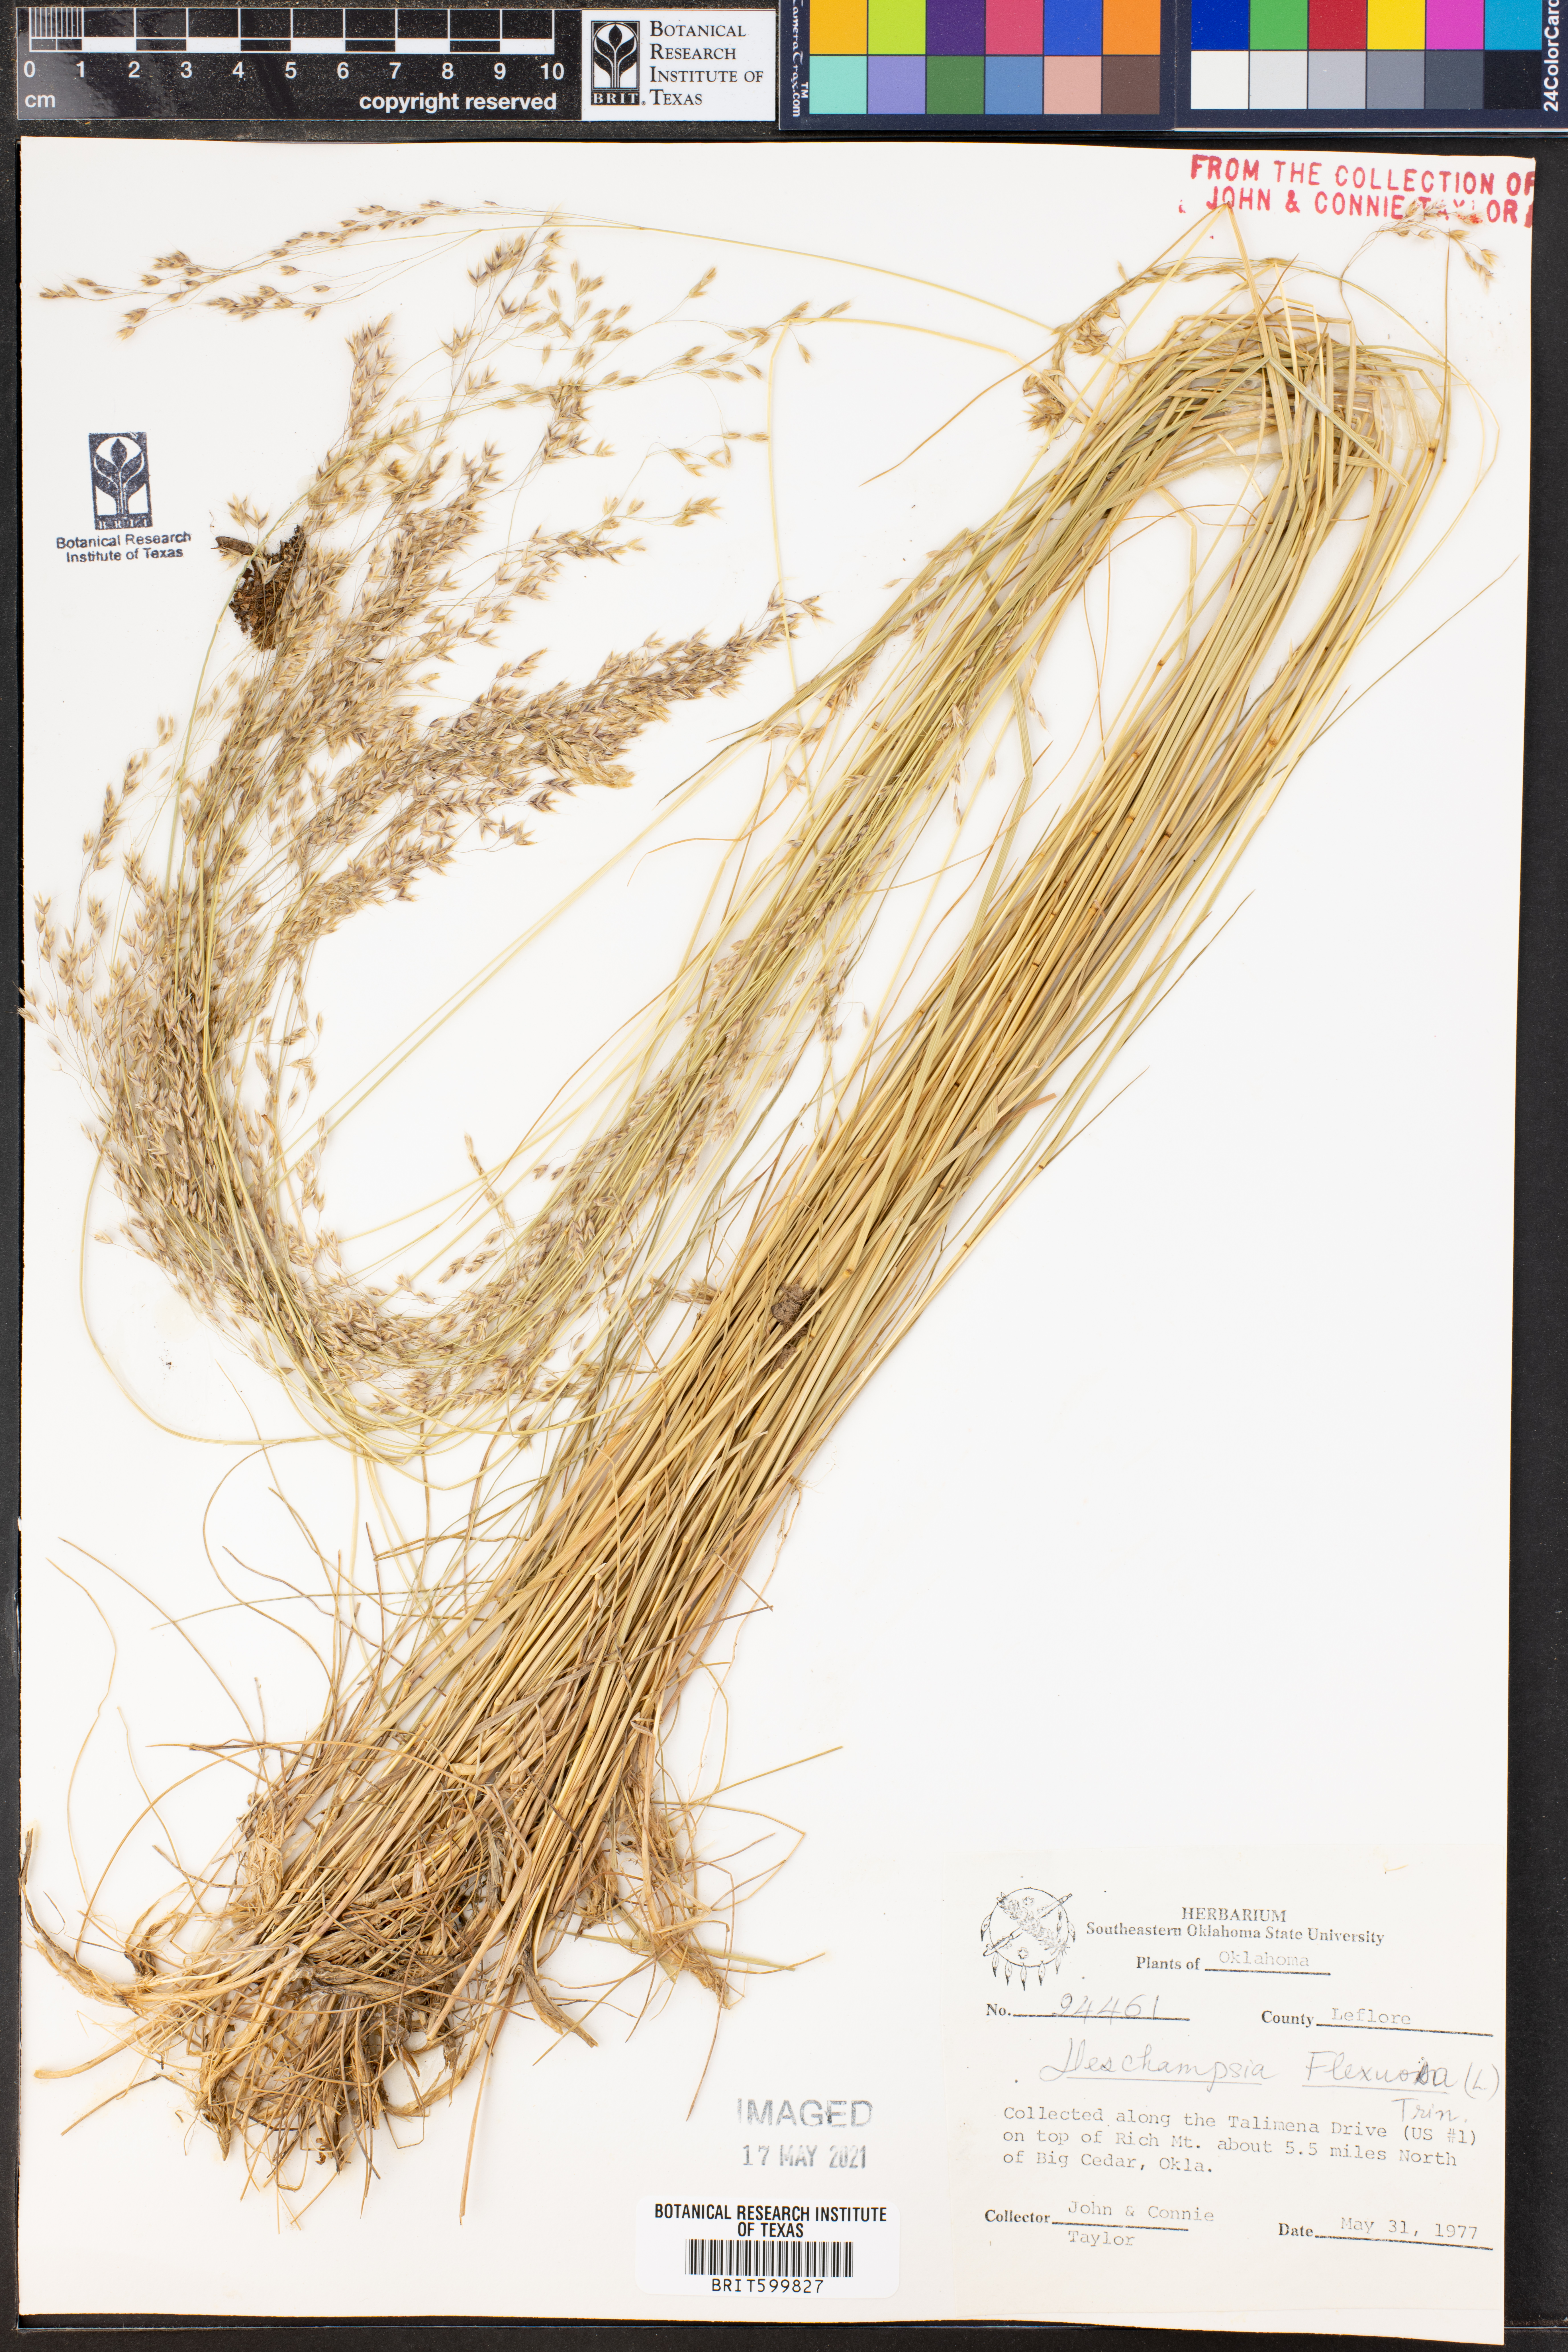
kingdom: Plantae
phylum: Tracheophyta
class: Liliopsida
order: Poales
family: Poaceae
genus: Avenella
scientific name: Avenella flexuosa
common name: Wavy hairgrass
